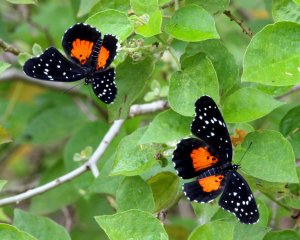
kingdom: Animalia
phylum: Arthropoda
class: Insecta
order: Lepidoptera
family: Nymphalidae
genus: Chlosyne
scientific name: Chlosyne janais
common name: Crimson Patch
